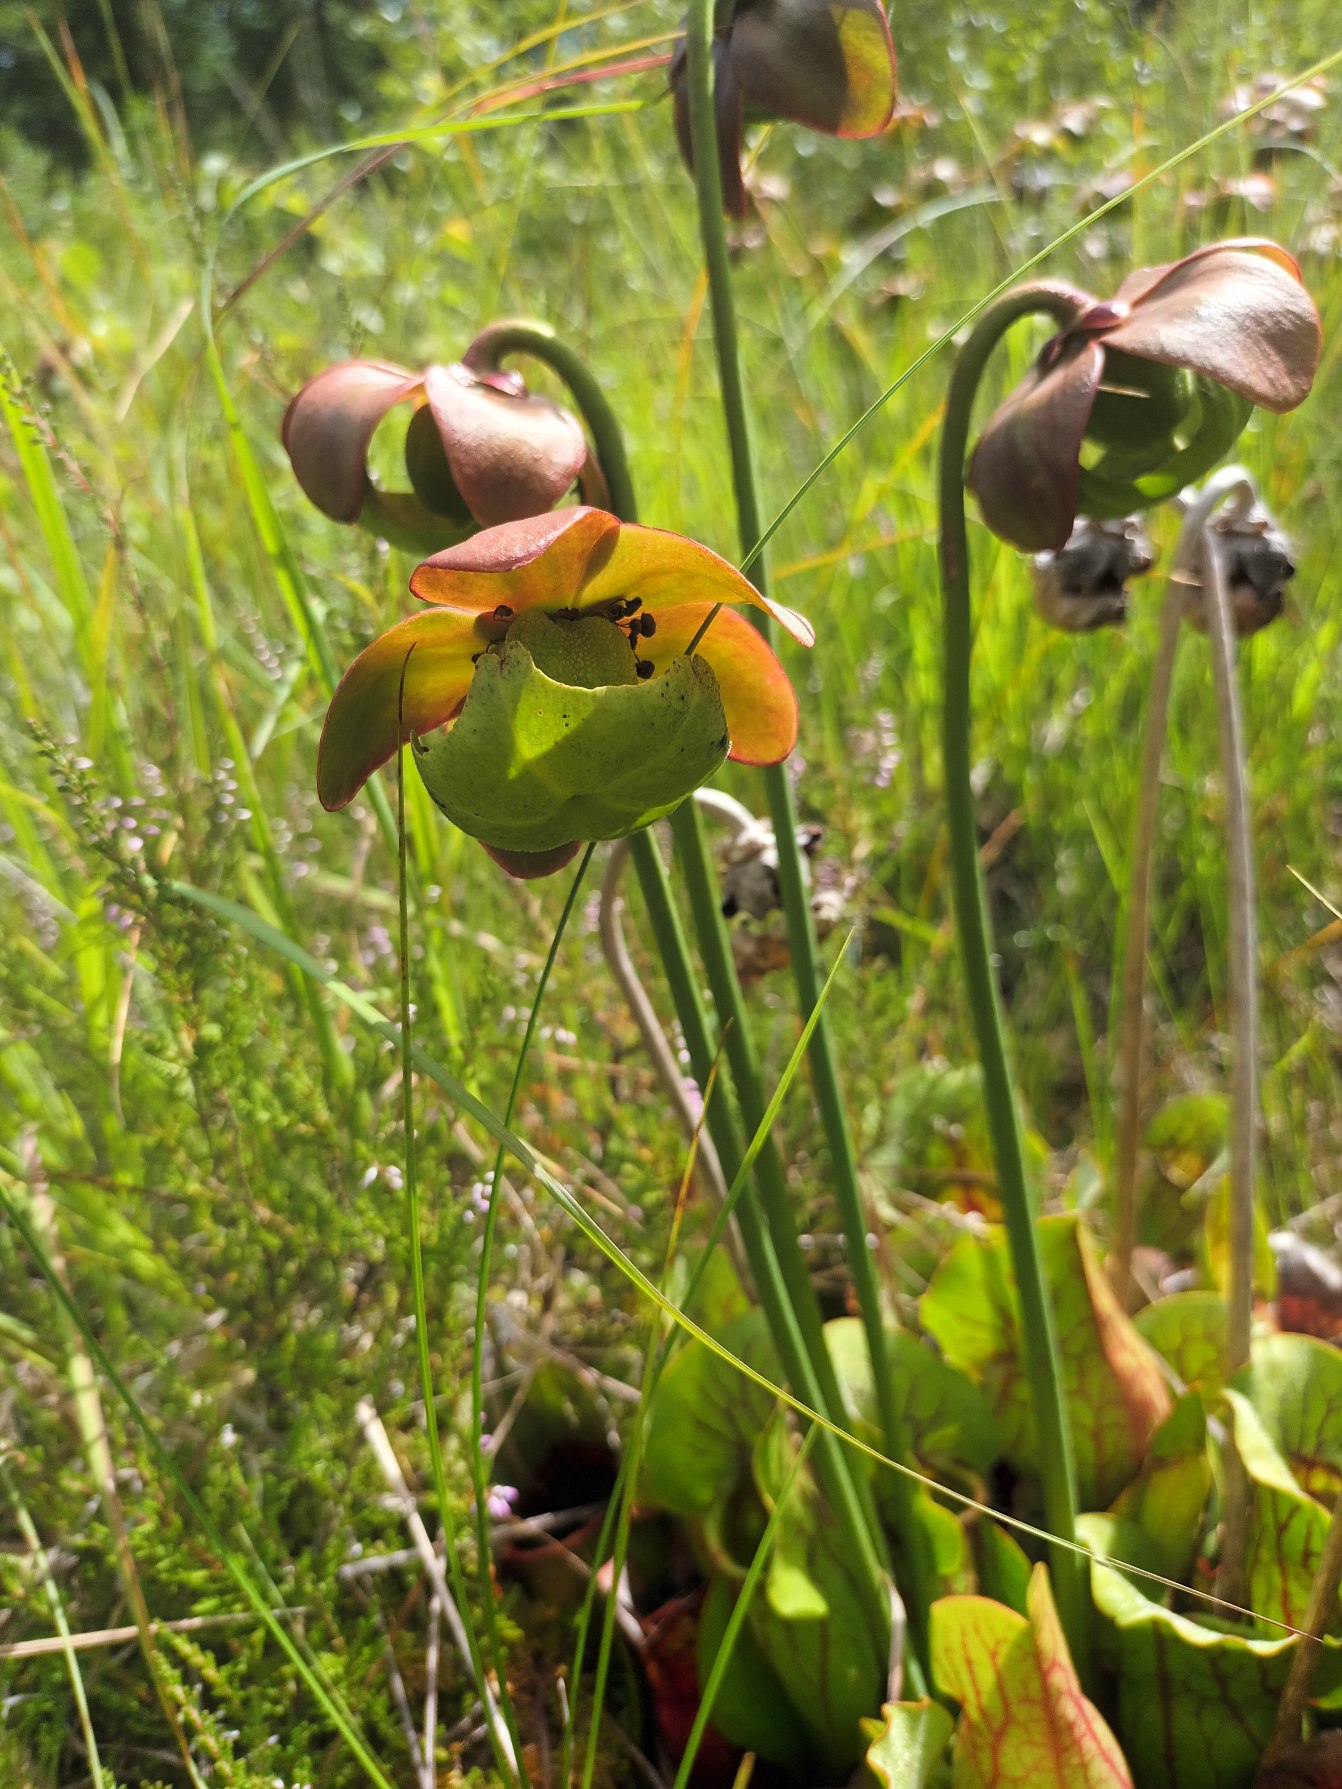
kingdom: Plantae
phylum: Tracheophyta
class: Magnoliopsida
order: Ericales
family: Sarraceniaceae
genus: Sarracenia
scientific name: Sarracenia purpurea
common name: Trompetblad
